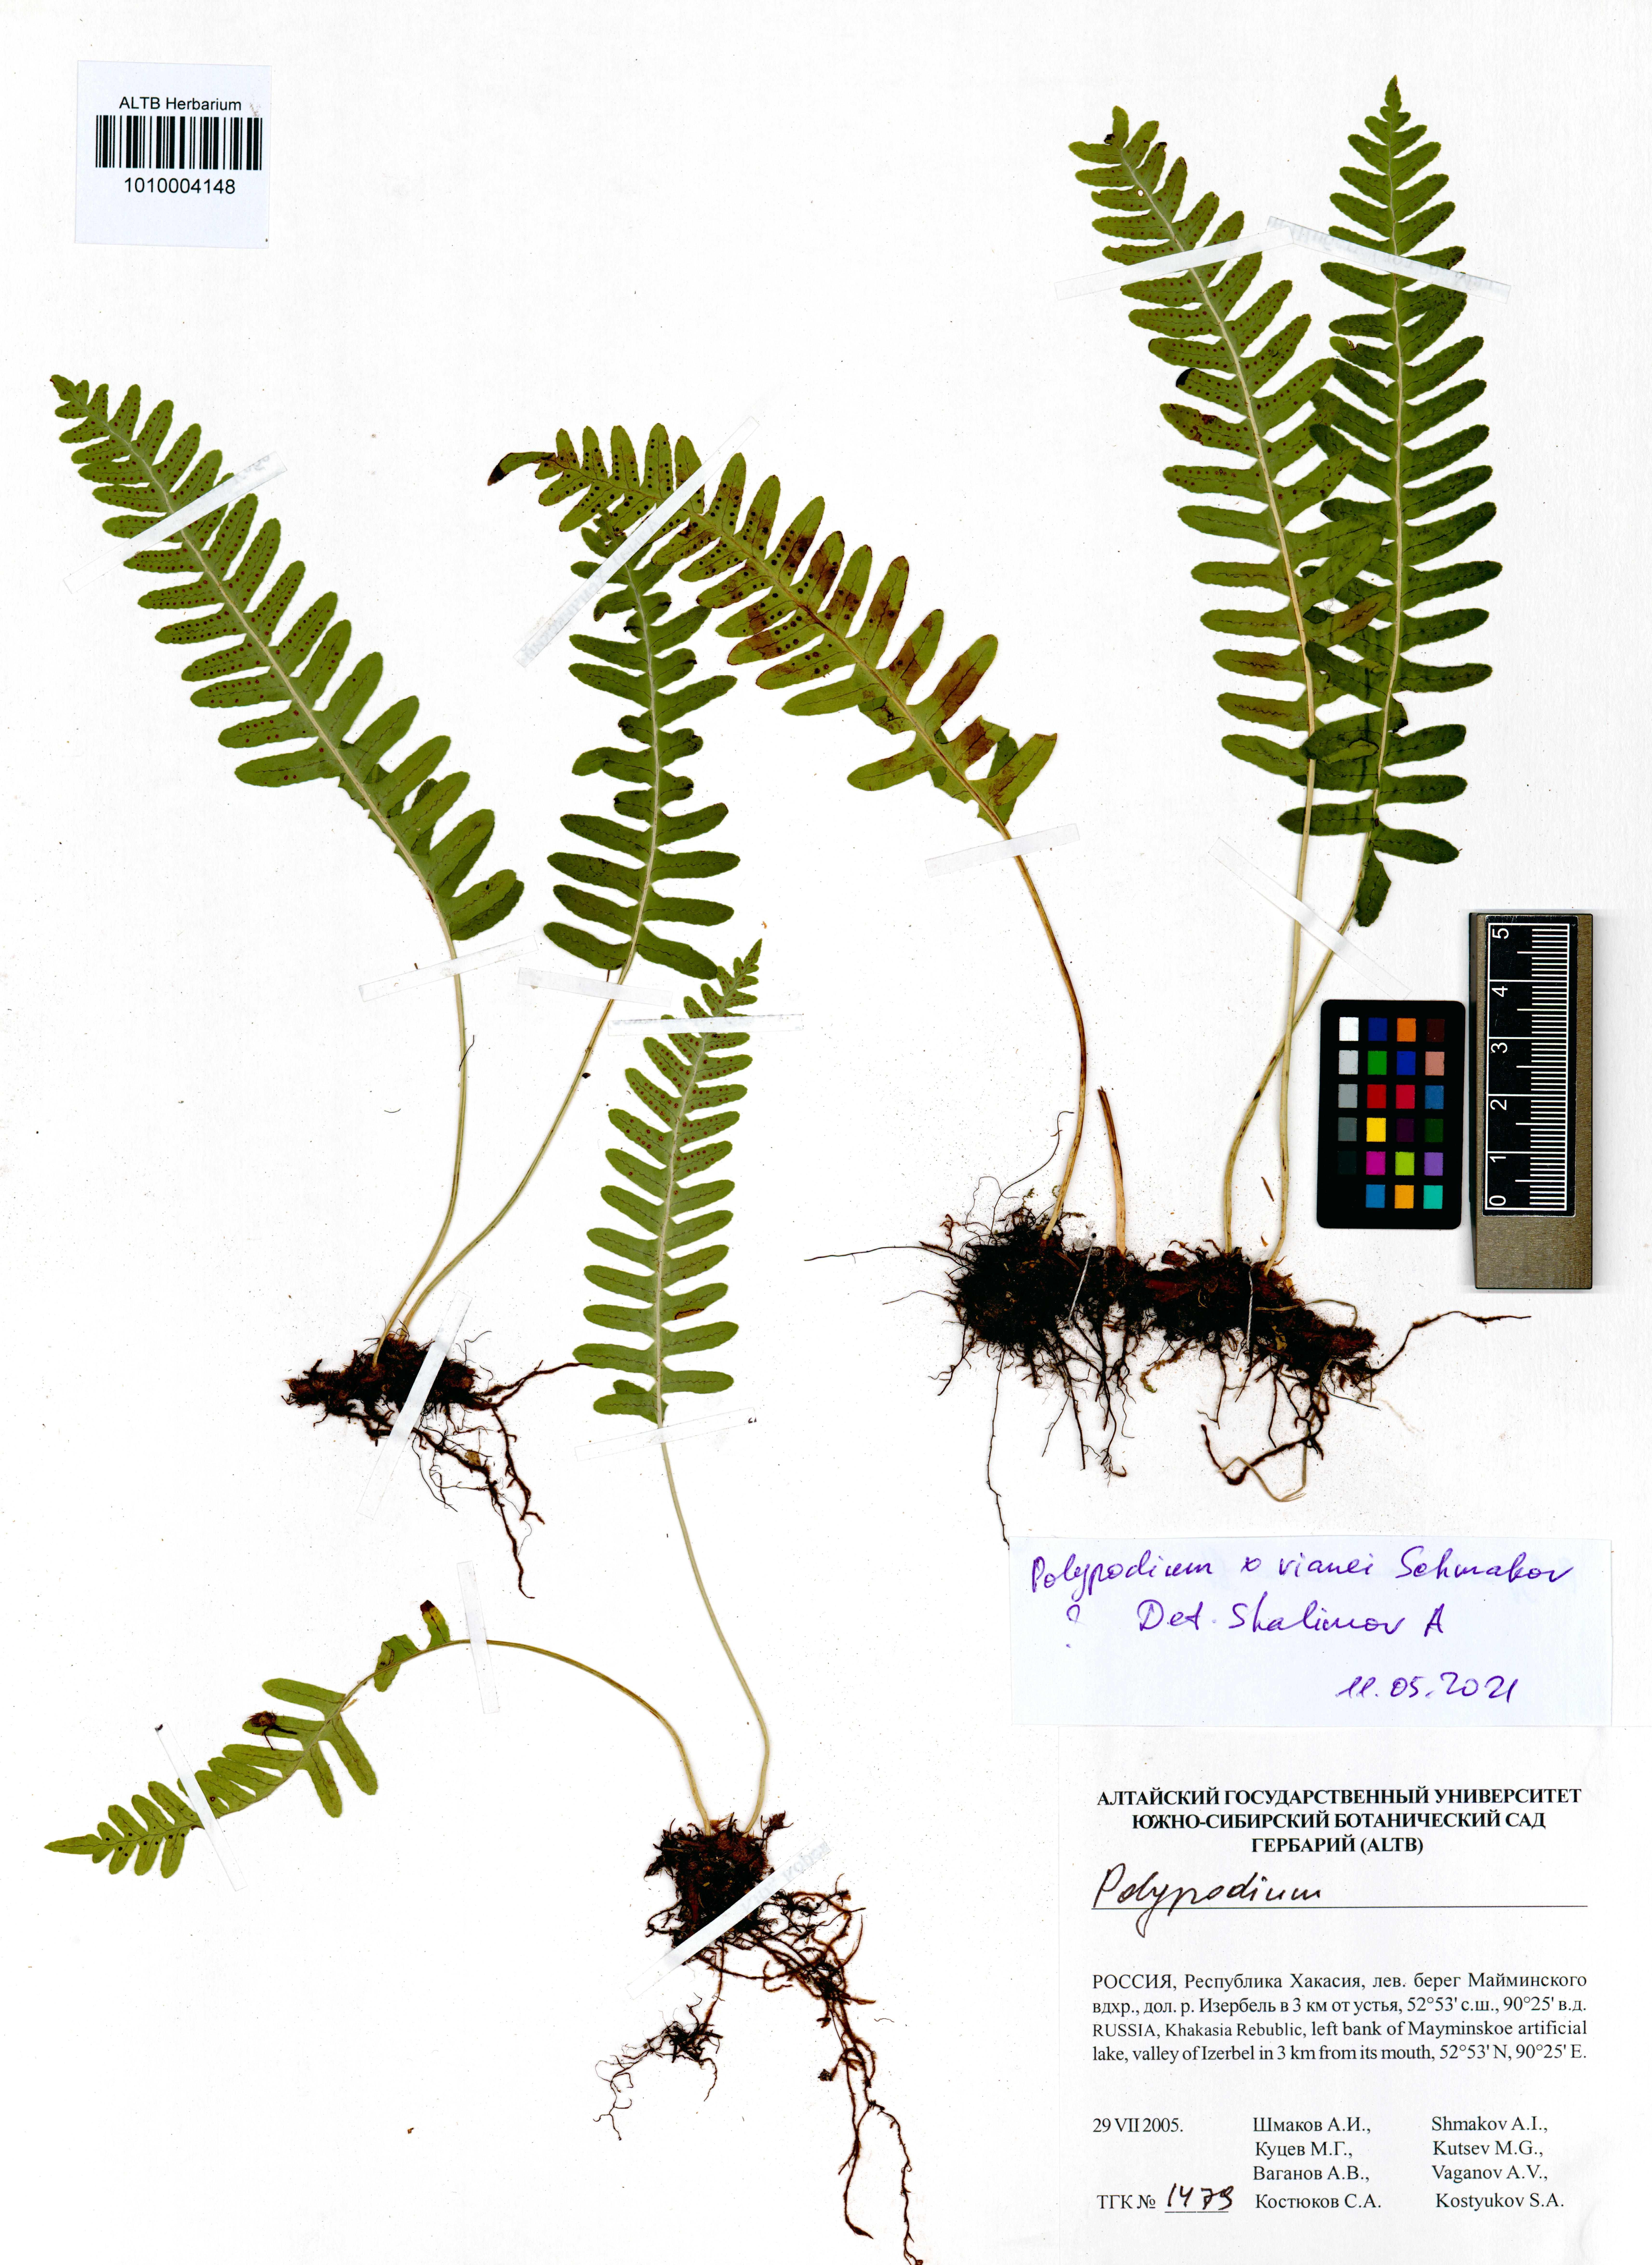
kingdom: Plantae
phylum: Tracheophyta
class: Polypodiopsida
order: Polypodiales
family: Polypodiaceae
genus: Polypodium
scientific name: Polypodium vianei
